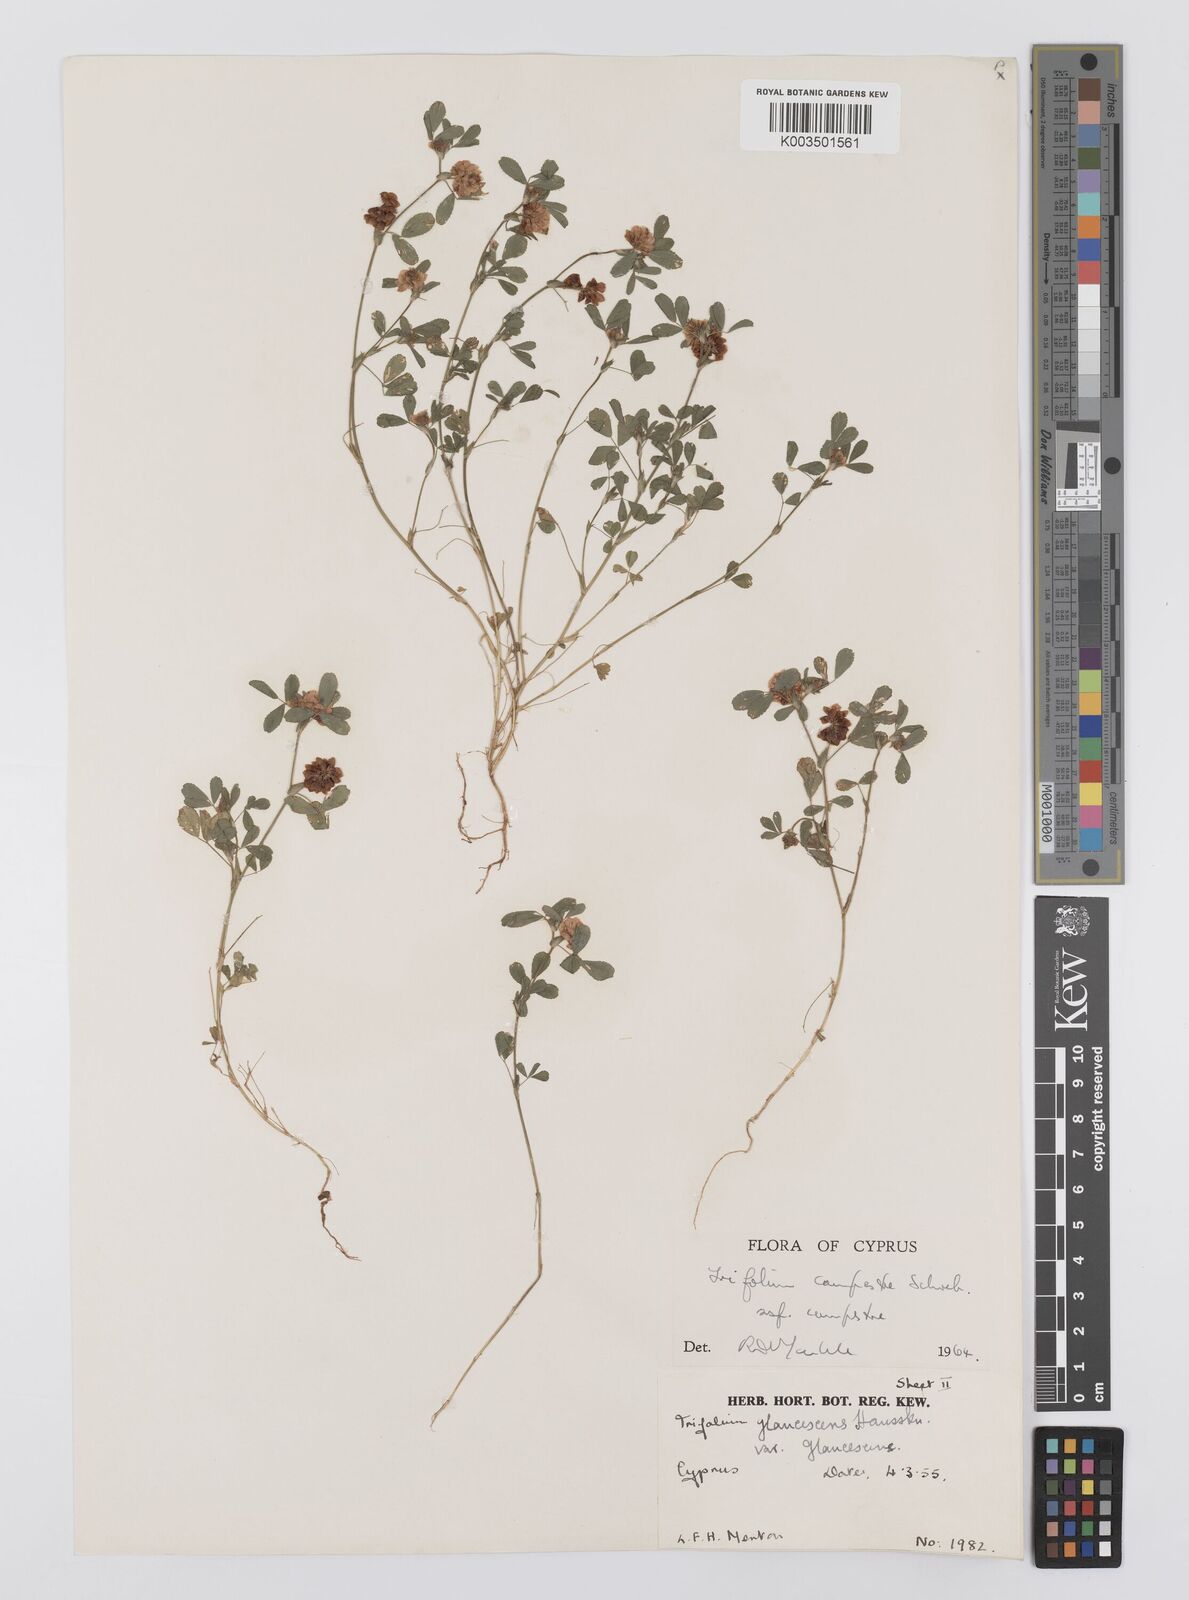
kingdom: Plantae
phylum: Tracheophyta
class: Magnoliopsida
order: Fabales
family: Fabaceae
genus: Trifolium
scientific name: Trifolium campestre
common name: Field clover
